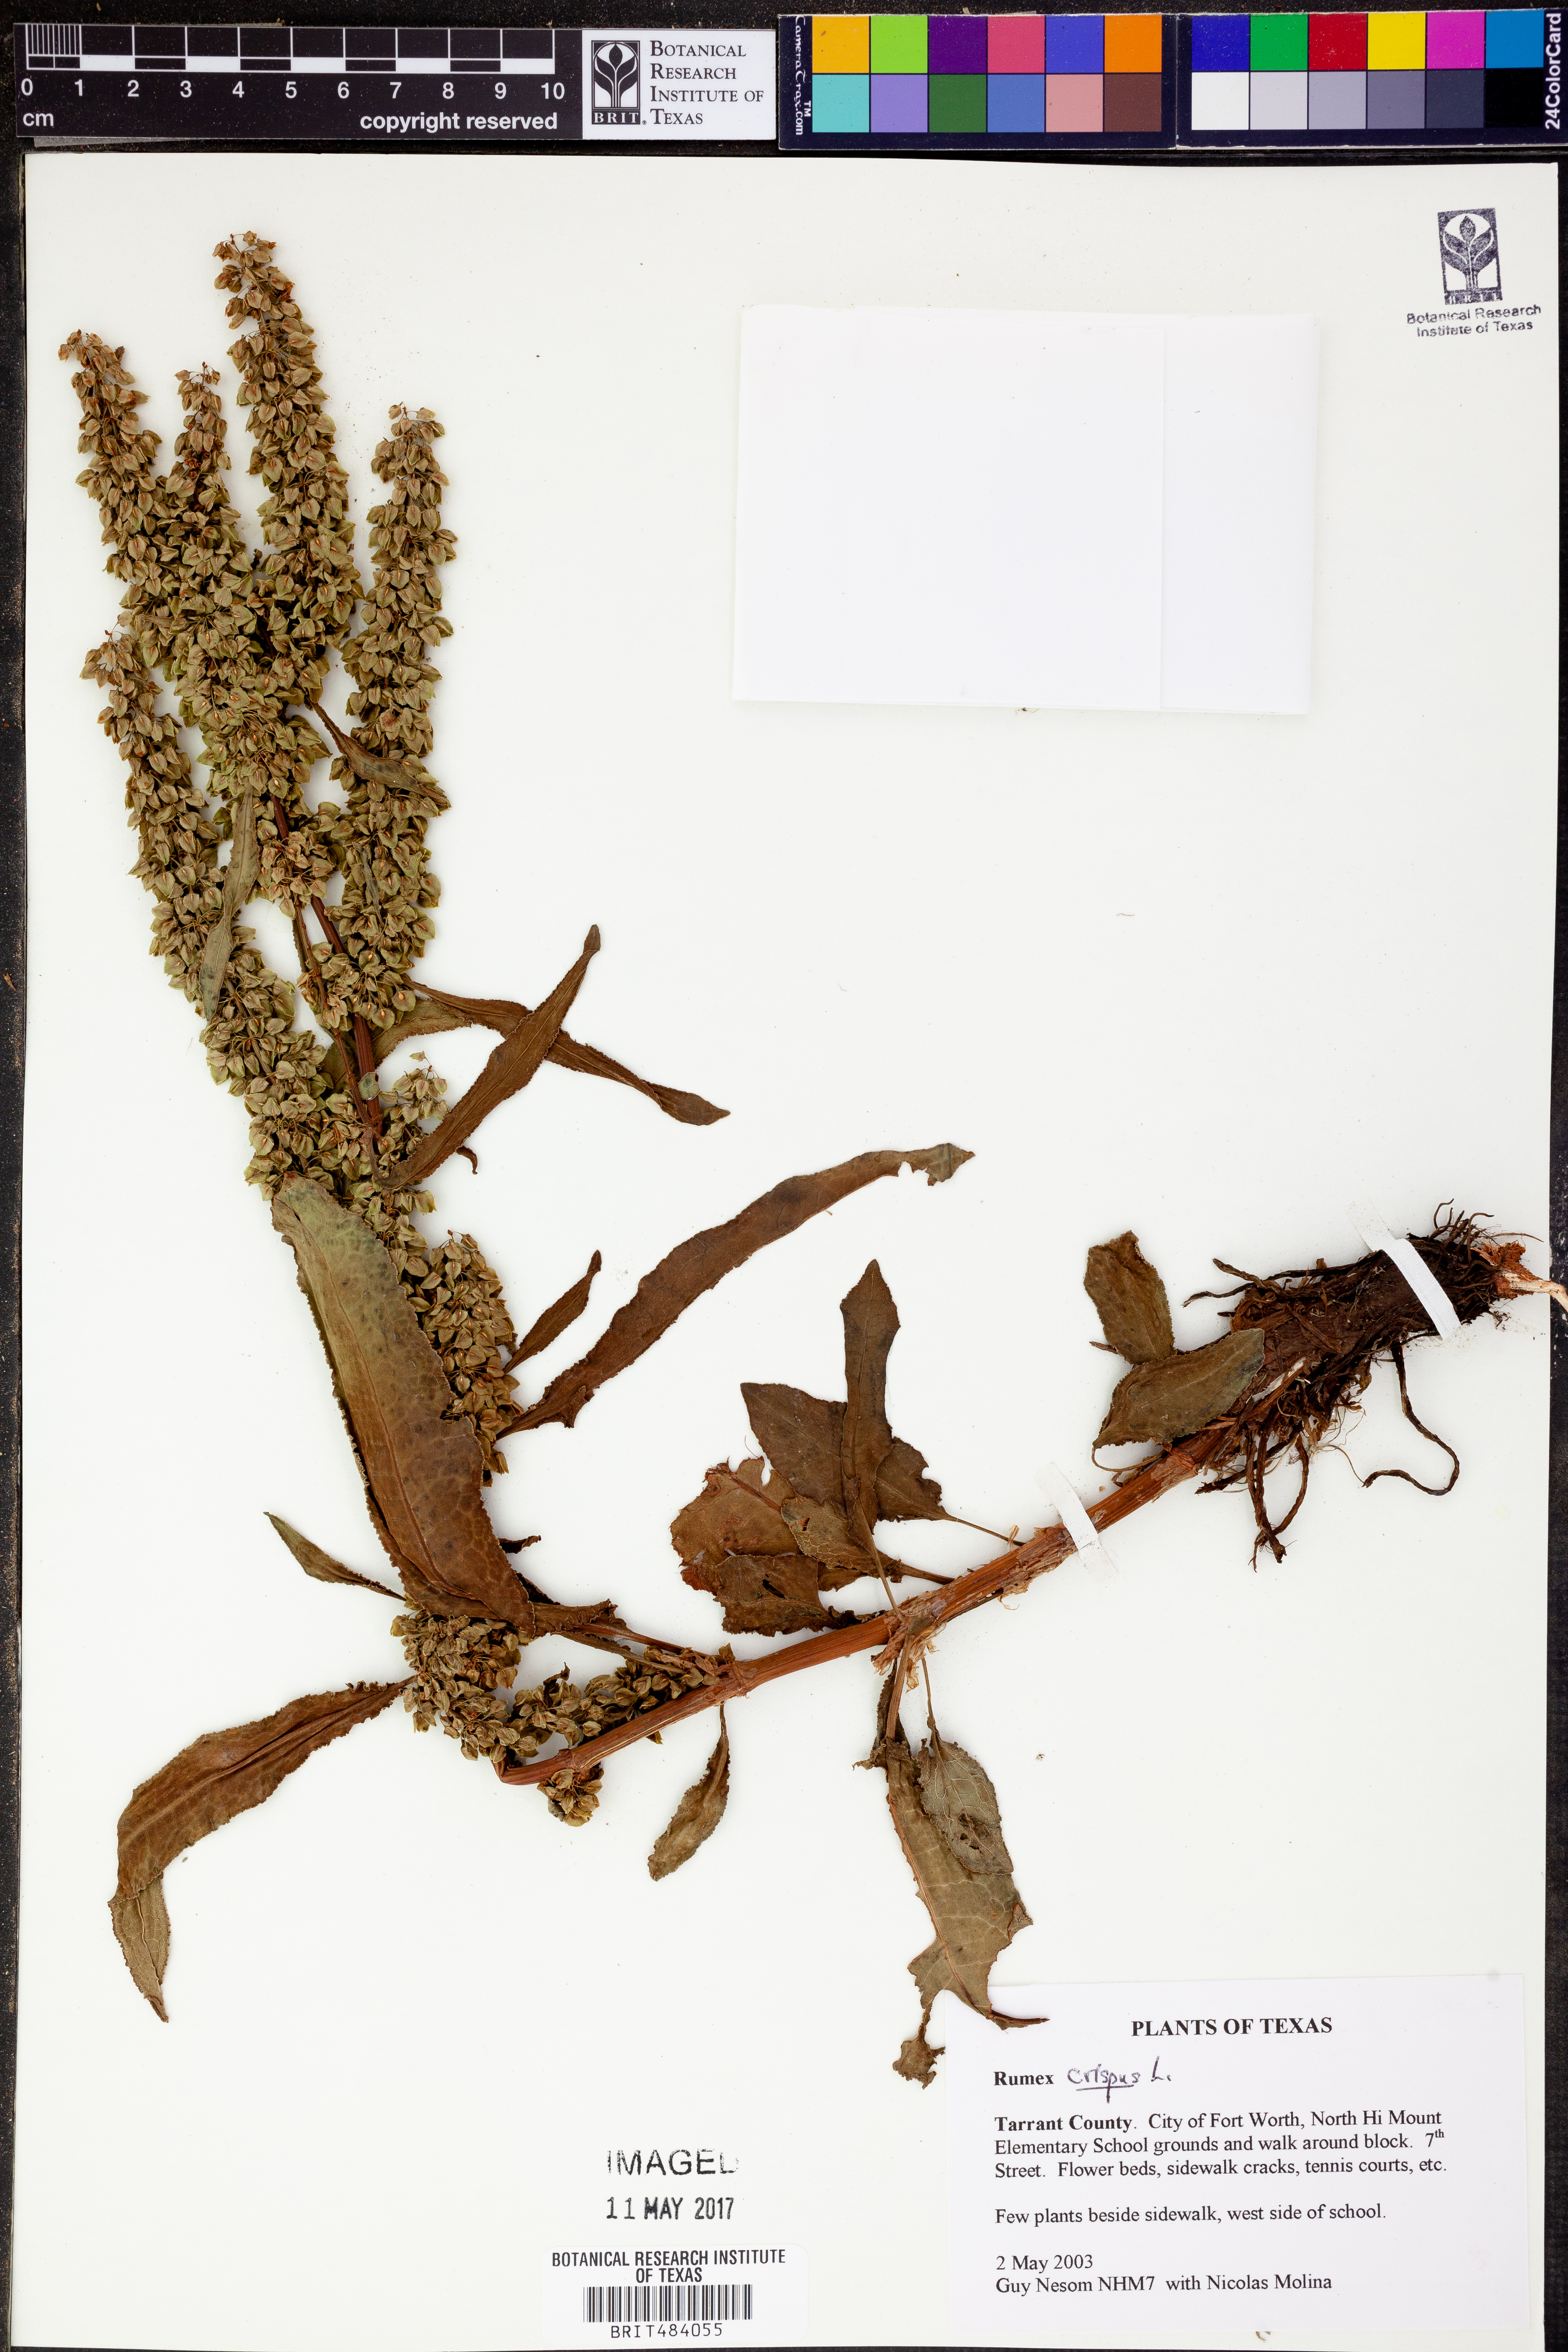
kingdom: Plantae
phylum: Tracheophyta
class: Magnoliopsida
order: Caryophyllales
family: Polygonaceae
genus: Rumex
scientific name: Rumex crispus
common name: Curled dock
